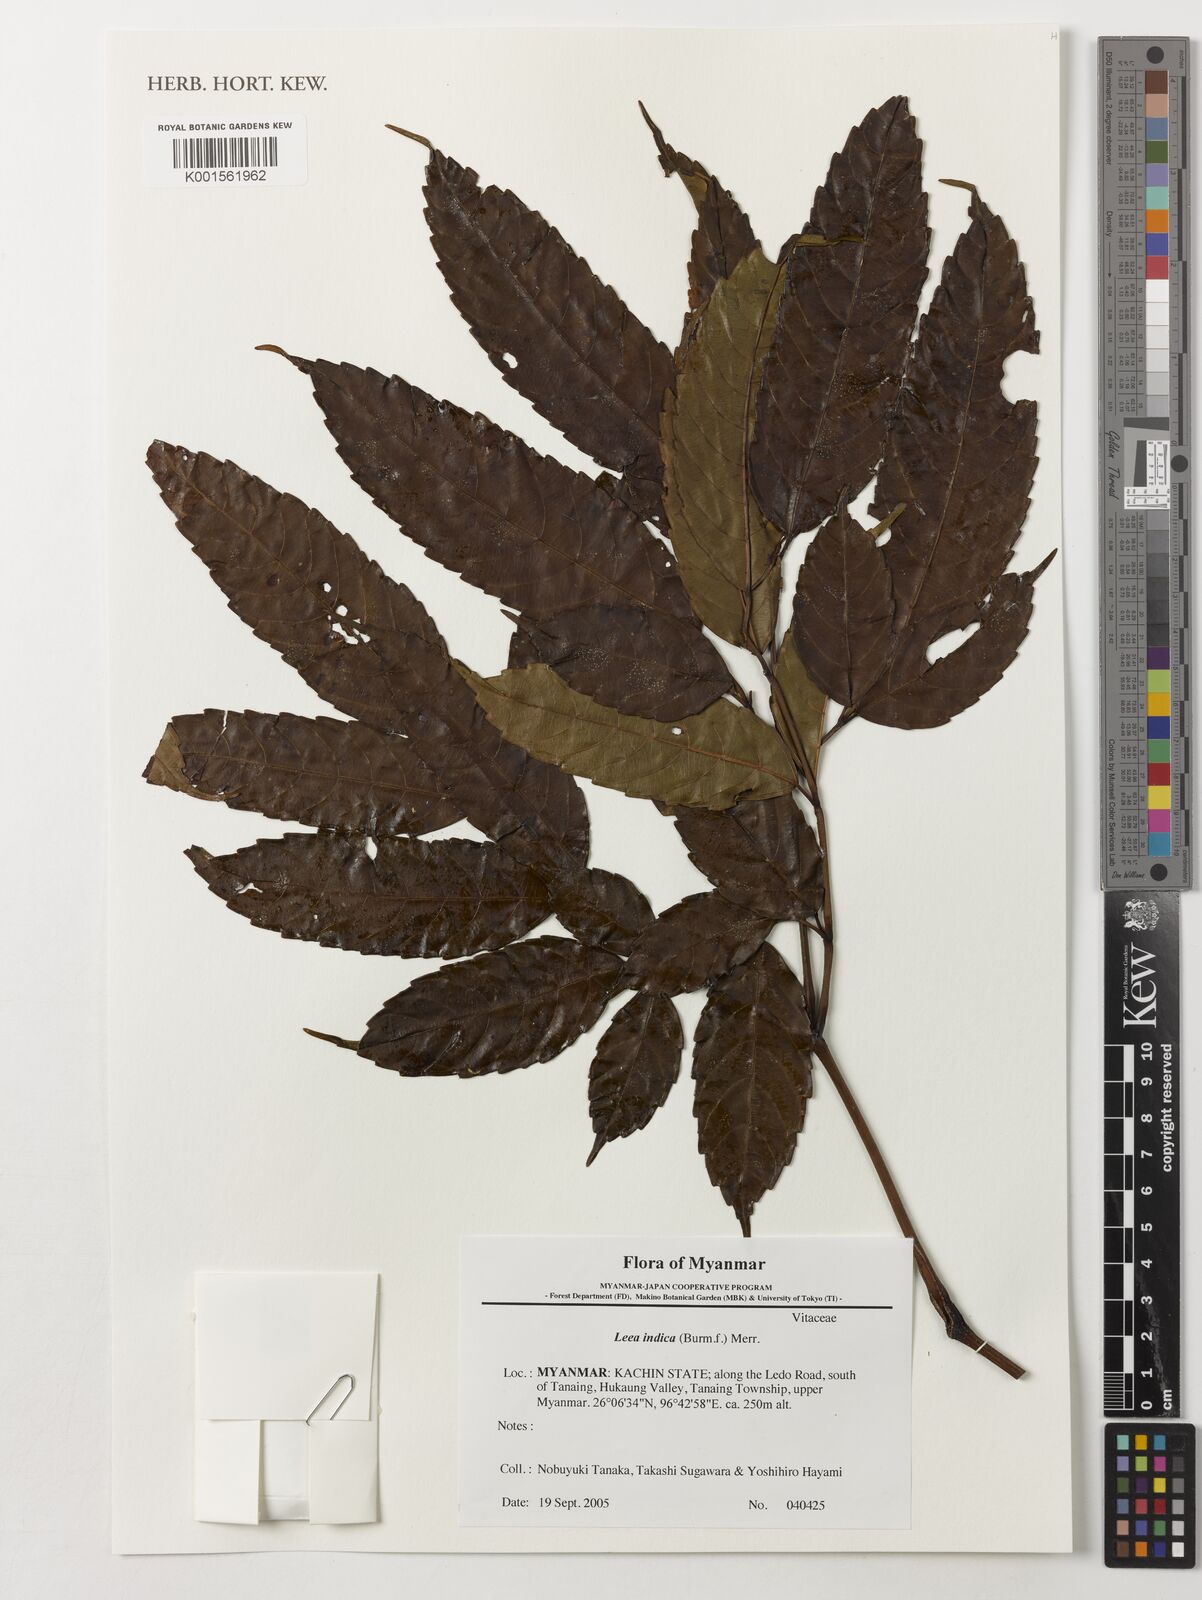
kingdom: Plantae
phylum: Tracheophyta
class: Magnoliopsida
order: Vitales
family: Vitaceae
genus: Leea
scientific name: Leea indica
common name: Bandicoot-berry
